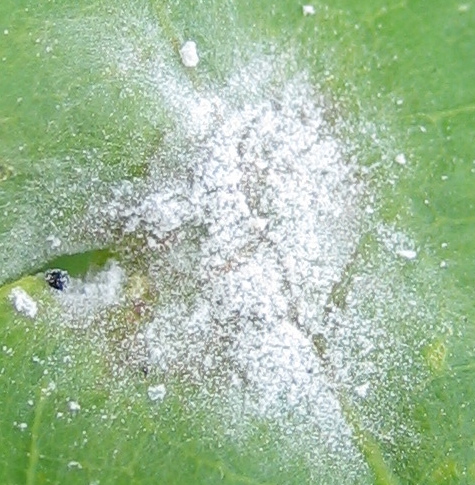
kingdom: Fungi
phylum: Ascomycota
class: Leotiomycetes
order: Helotiales
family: Erysiphaceae
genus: Erysiphe
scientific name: Erysiphe alphitoides
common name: ege-meldug
